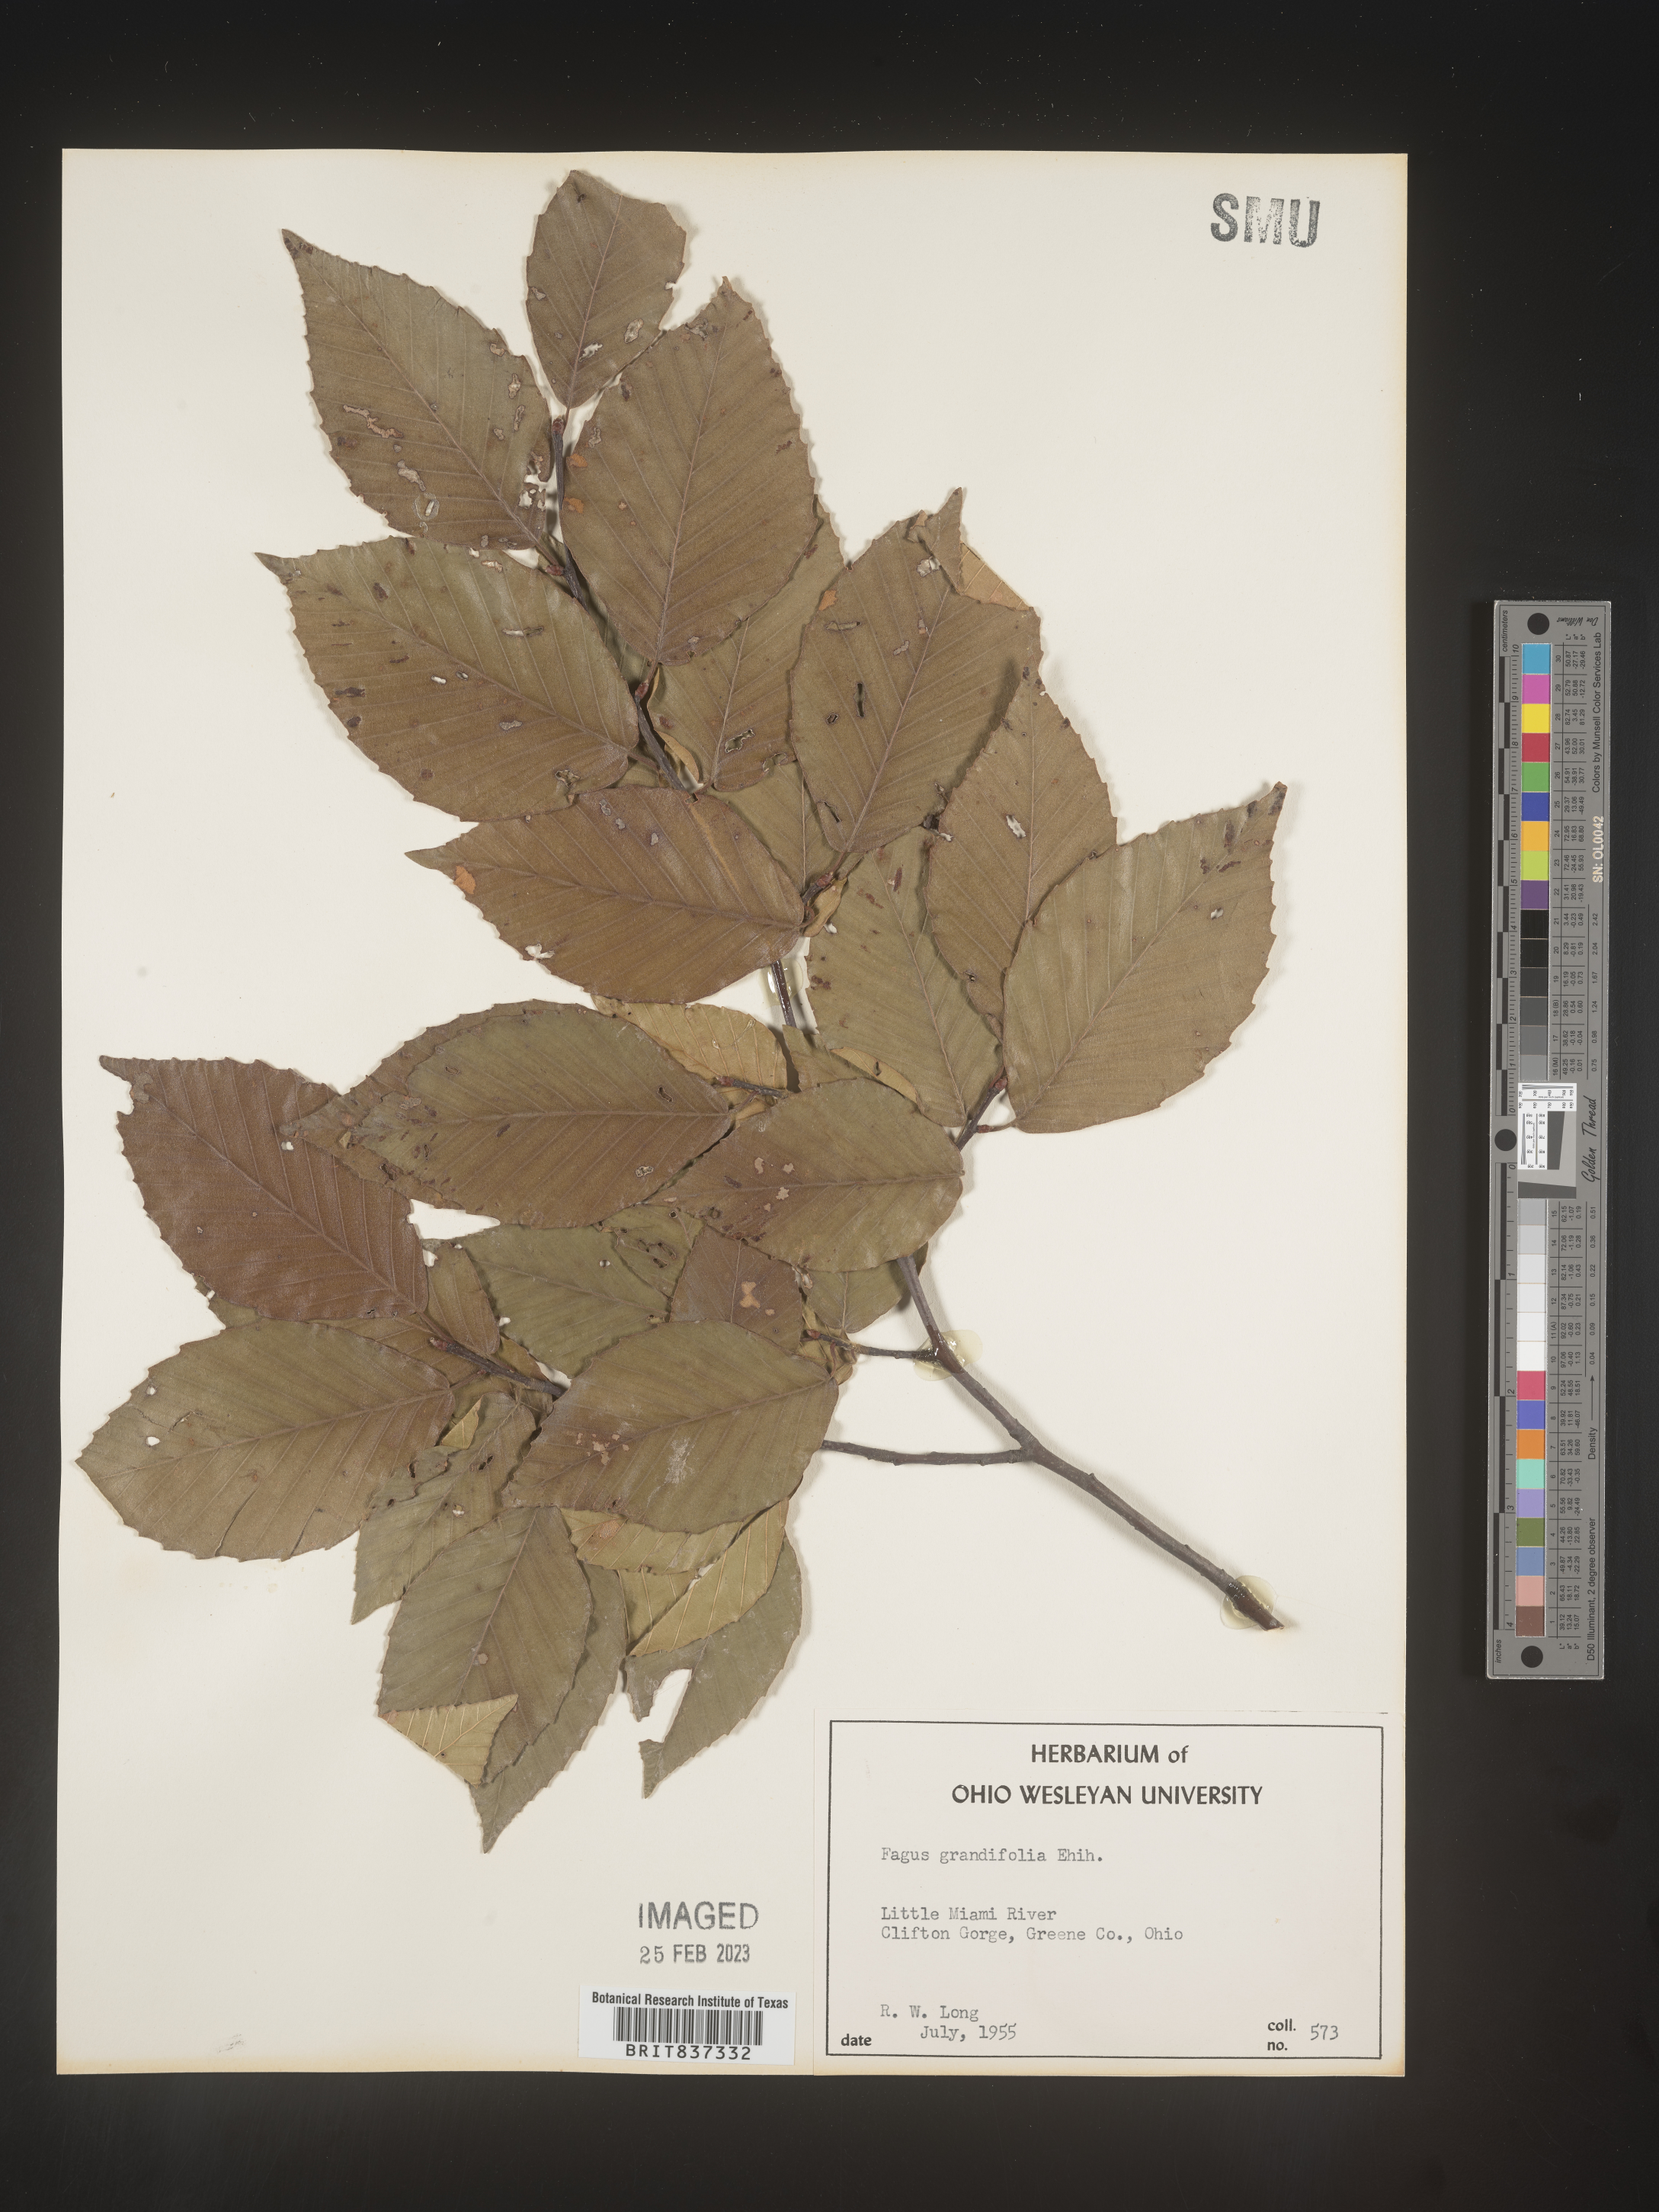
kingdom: Plantae
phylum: Tracheophyta
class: Magnoliopsida
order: Fagales
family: Fagaceae
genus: Fagus
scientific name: Fagus grandifolia
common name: American beech
